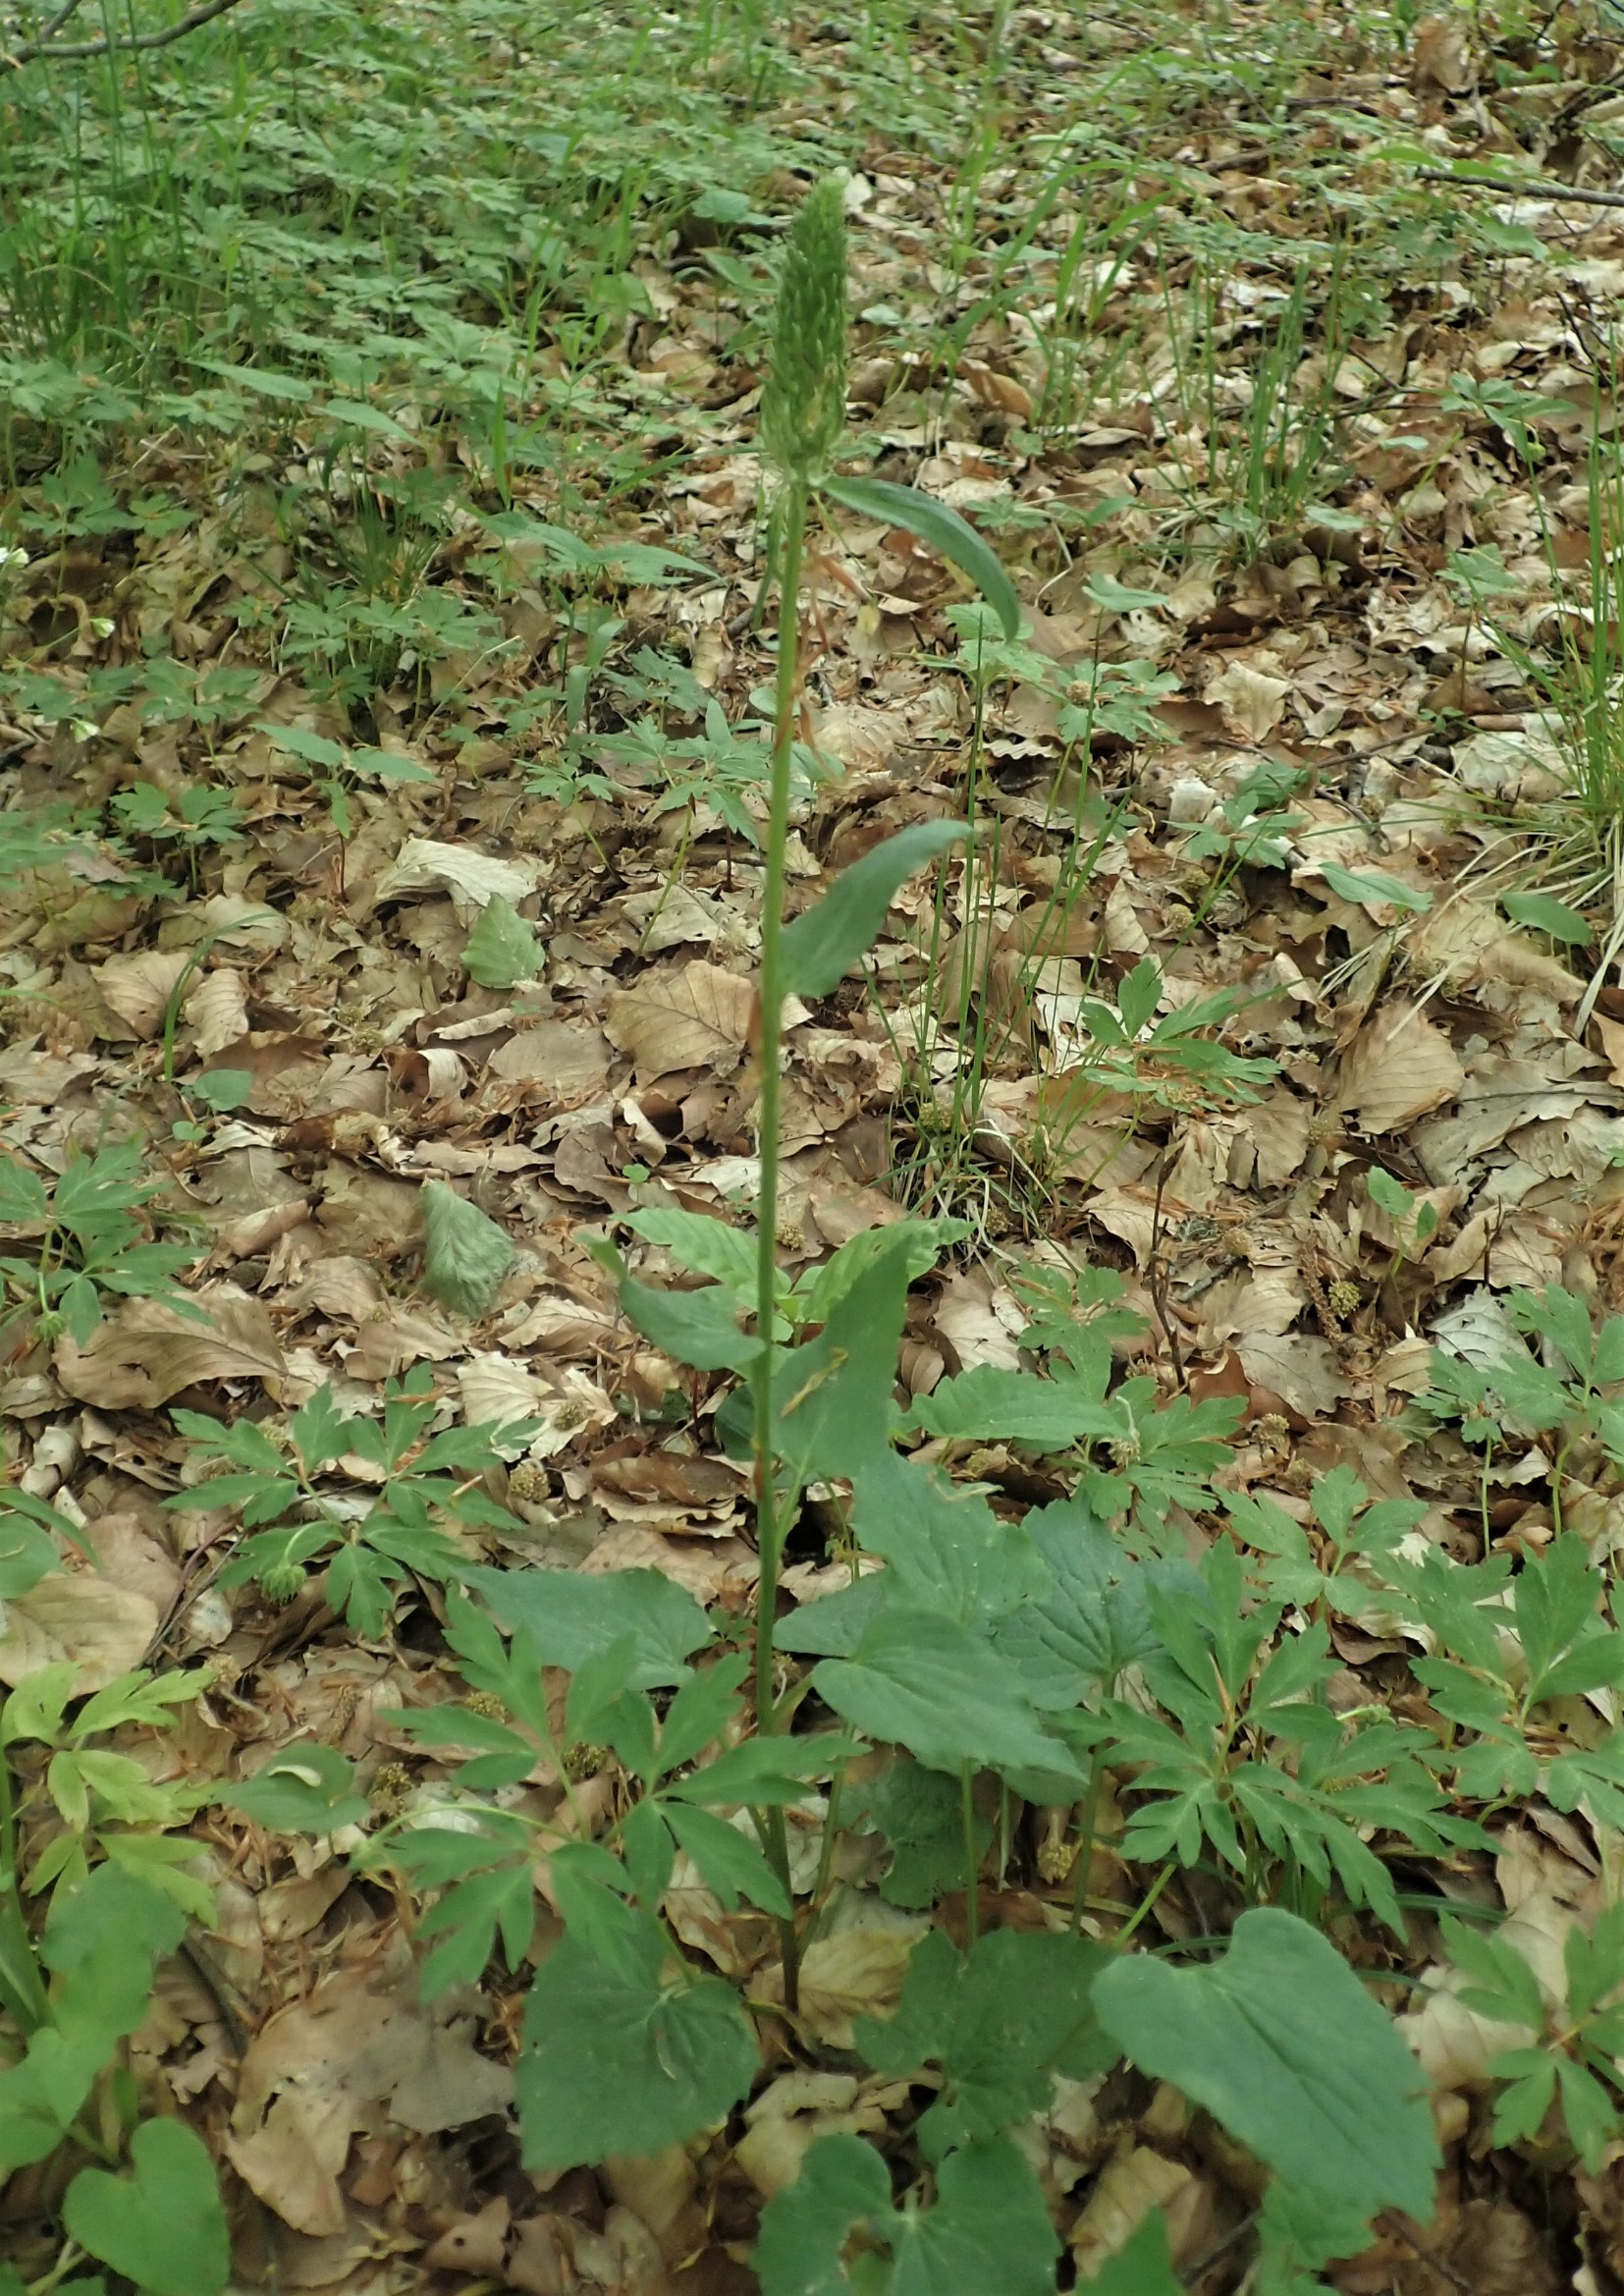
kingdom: Plantae
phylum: Tracheophyta
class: Magnoliopsida
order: Asterales
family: Campanulaceae
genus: Phyteuma
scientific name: Phyteuma spicatum
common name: Aks-rapunsel
